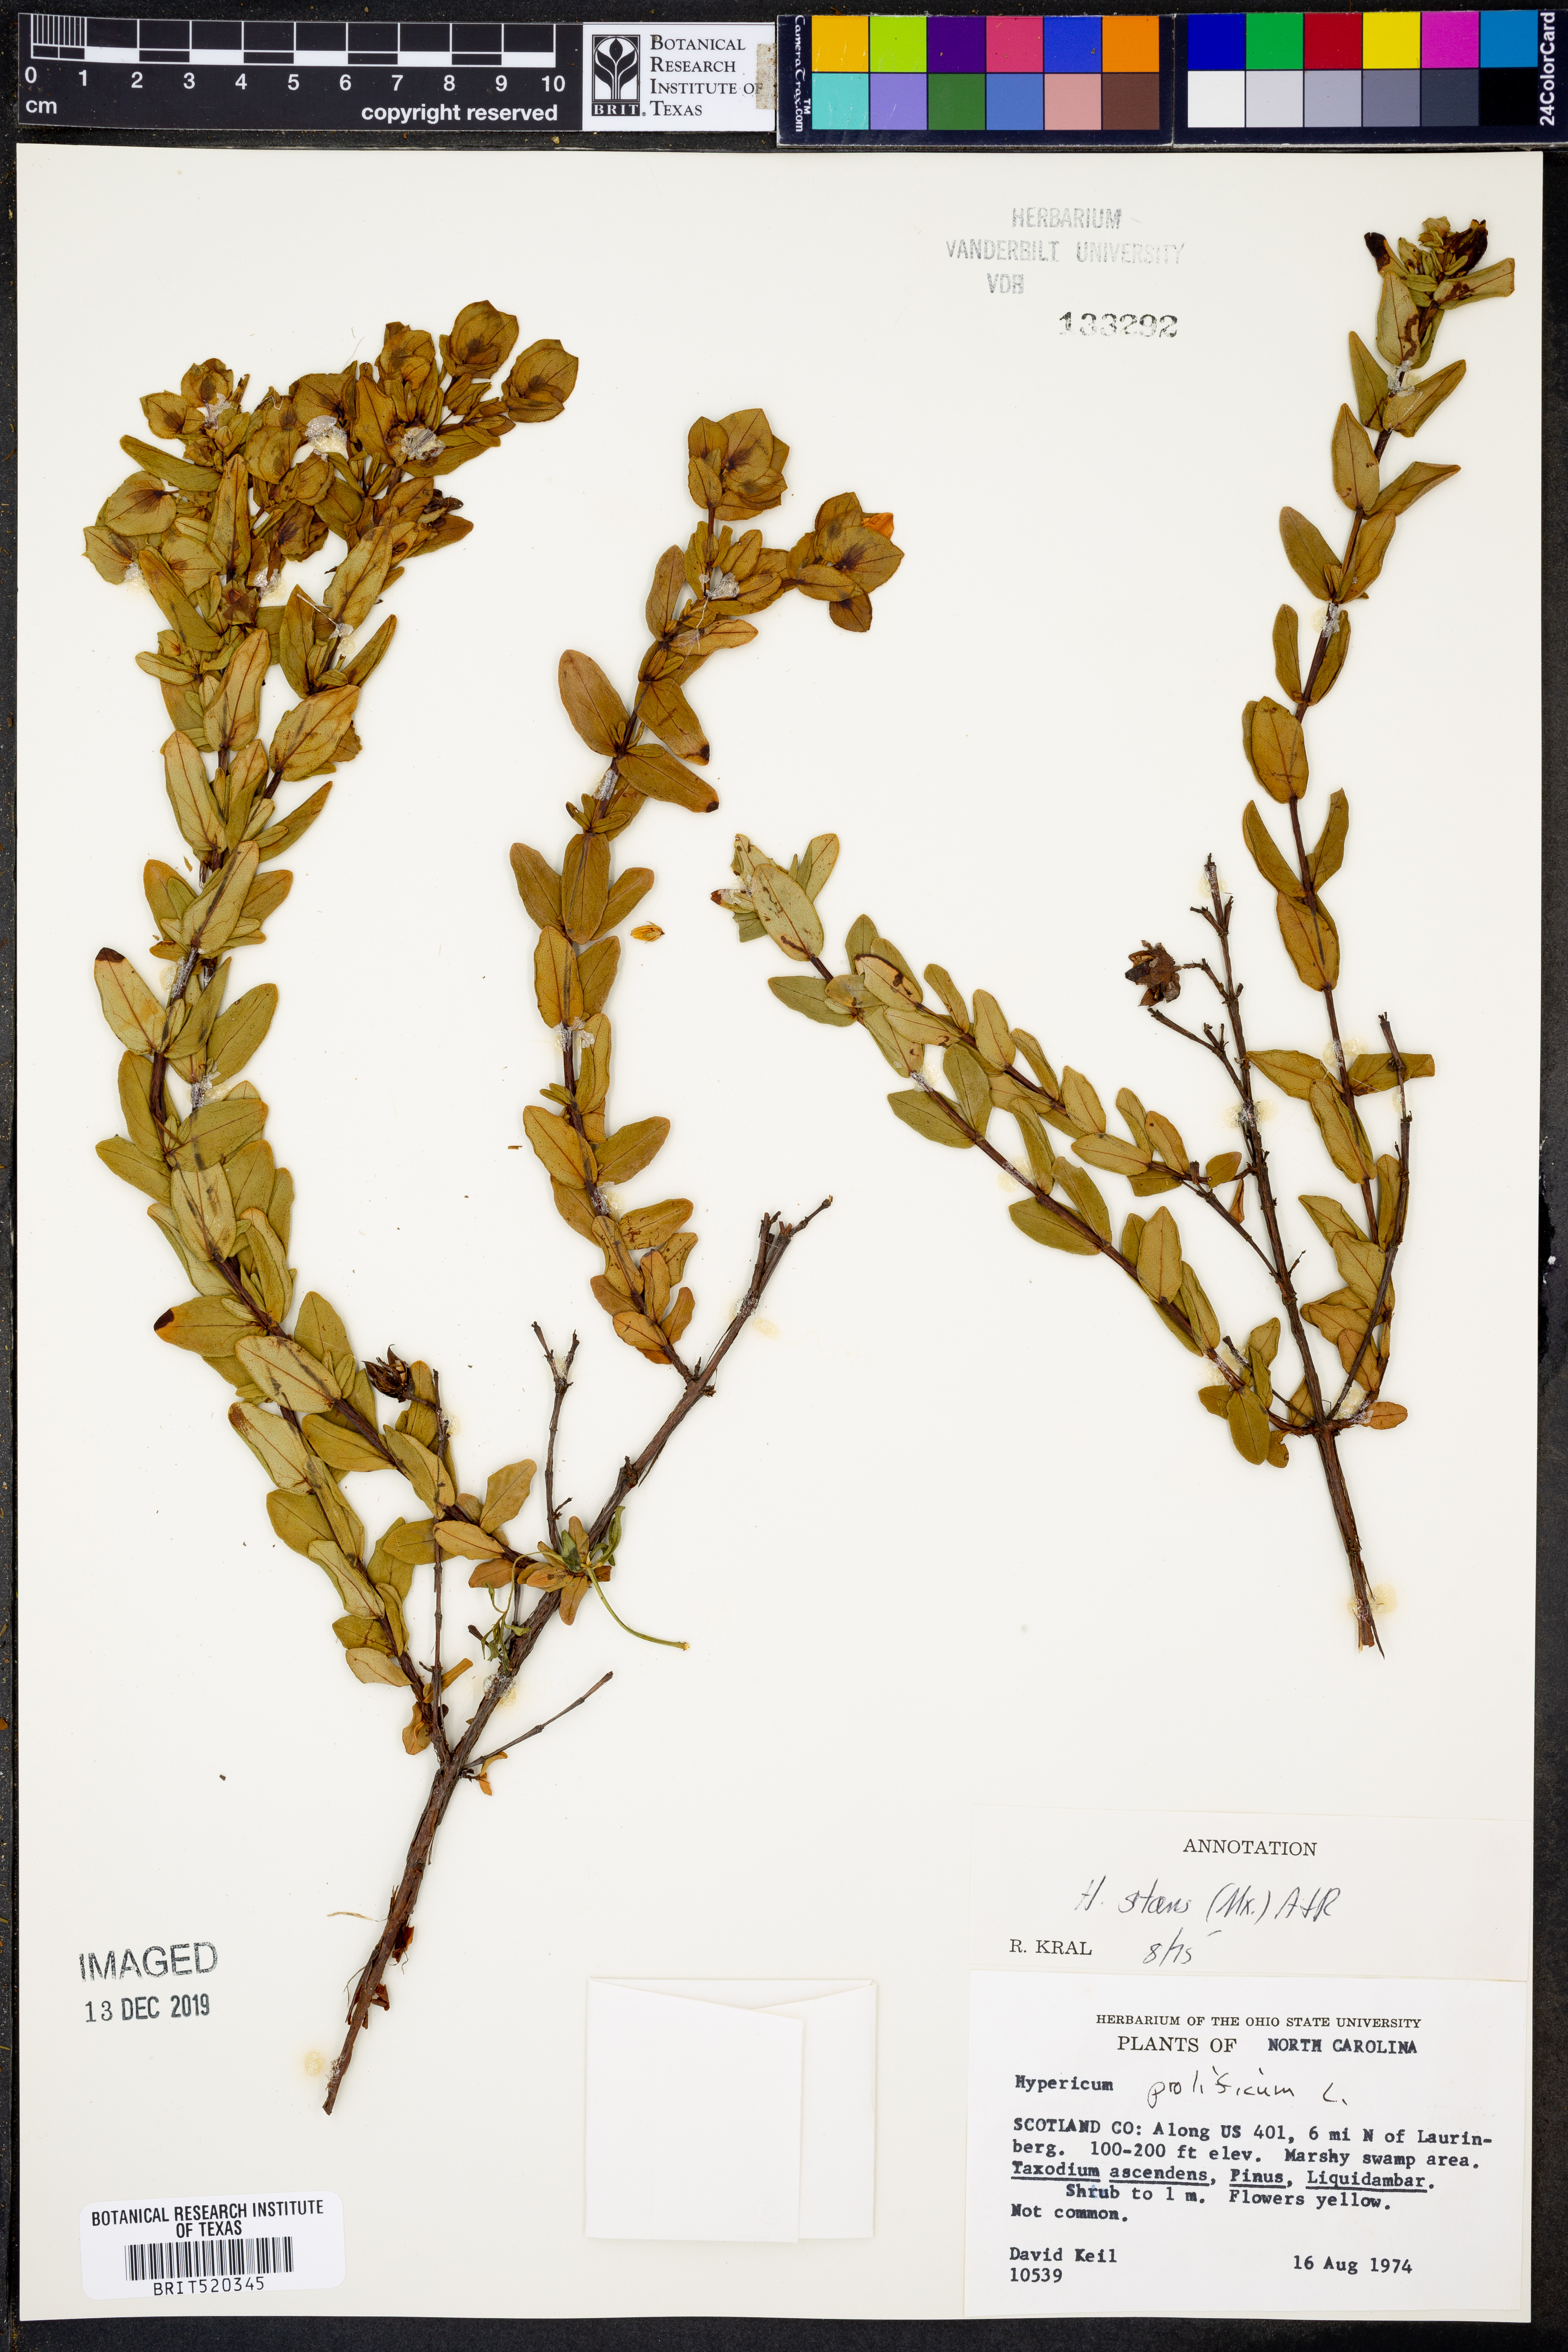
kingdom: Plantae
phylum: Tracheophyta
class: Magnoliopsida
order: Malpighiales
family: Hypericaceae
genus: Hypericum
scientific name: Hypericum crux-andreae
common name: St.-peter's-wort
